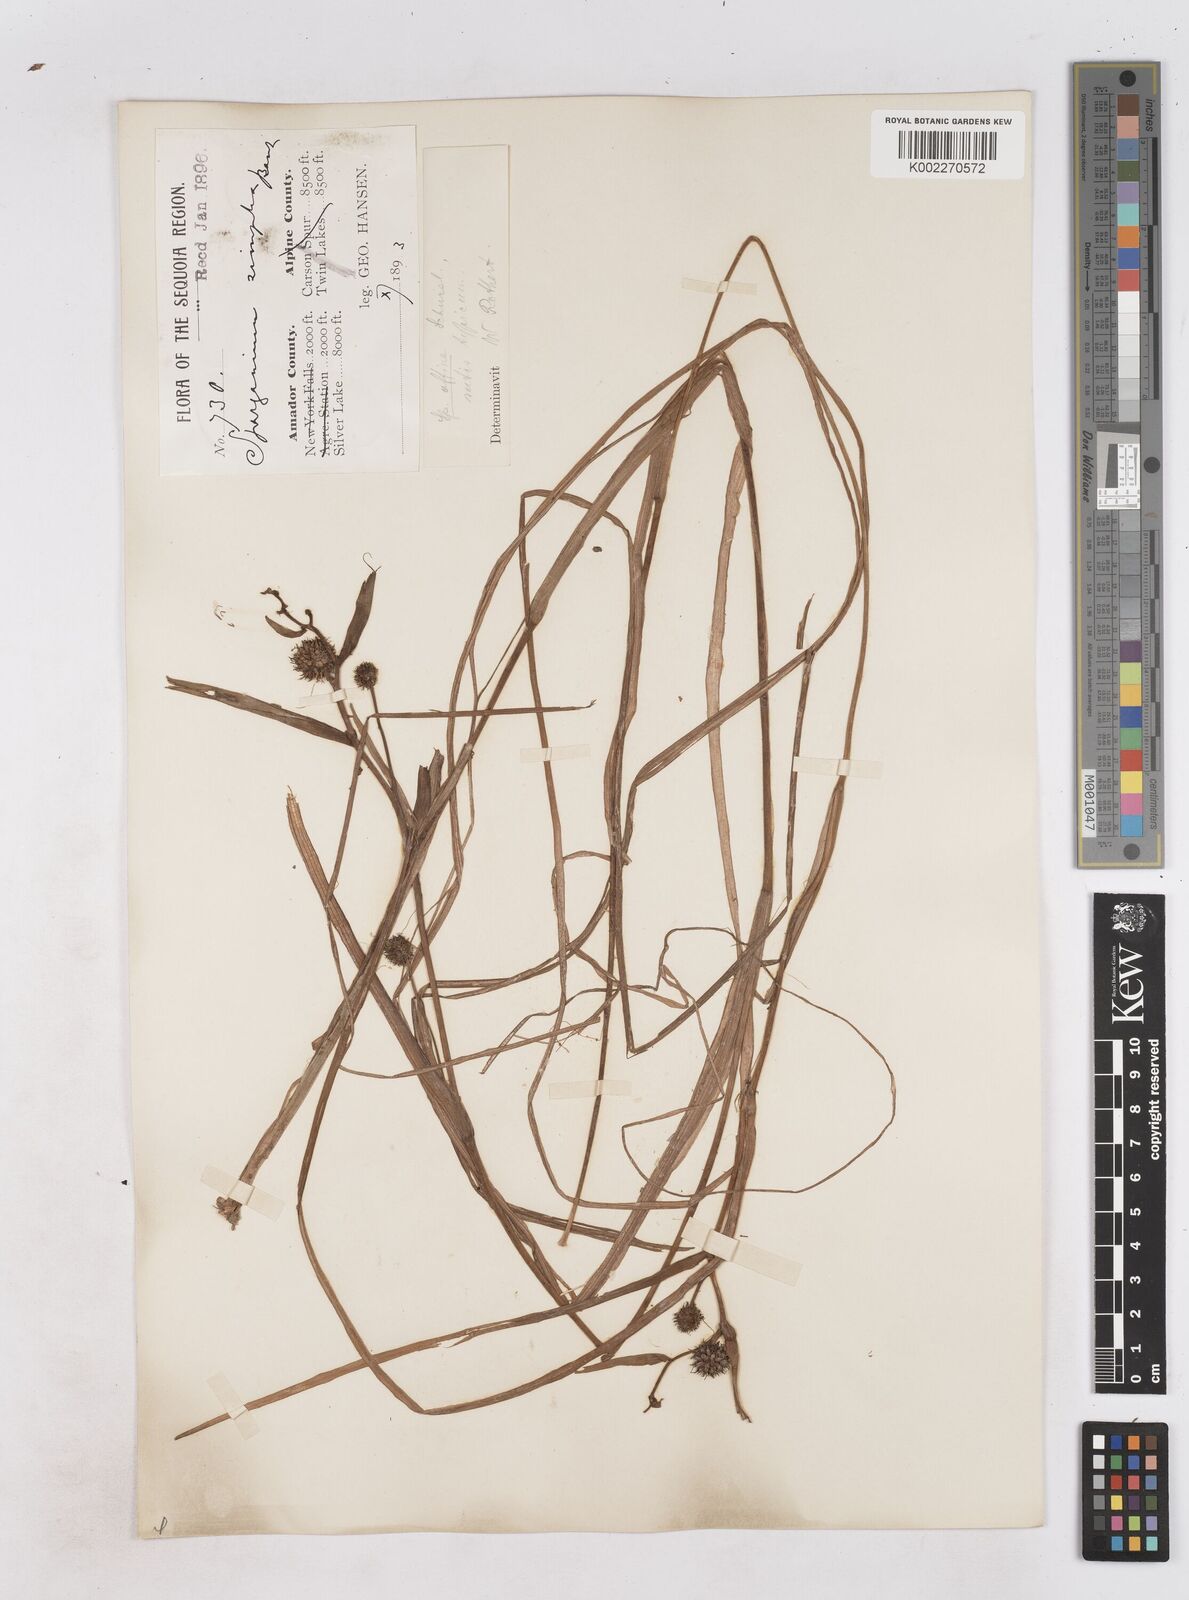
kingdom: Plantae
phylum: Tracheophyta
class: Liliopsida
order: Poales
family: Typhaceae
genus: Sparganium
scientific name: Sparganium angustifolium
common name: Floating bur-reed
